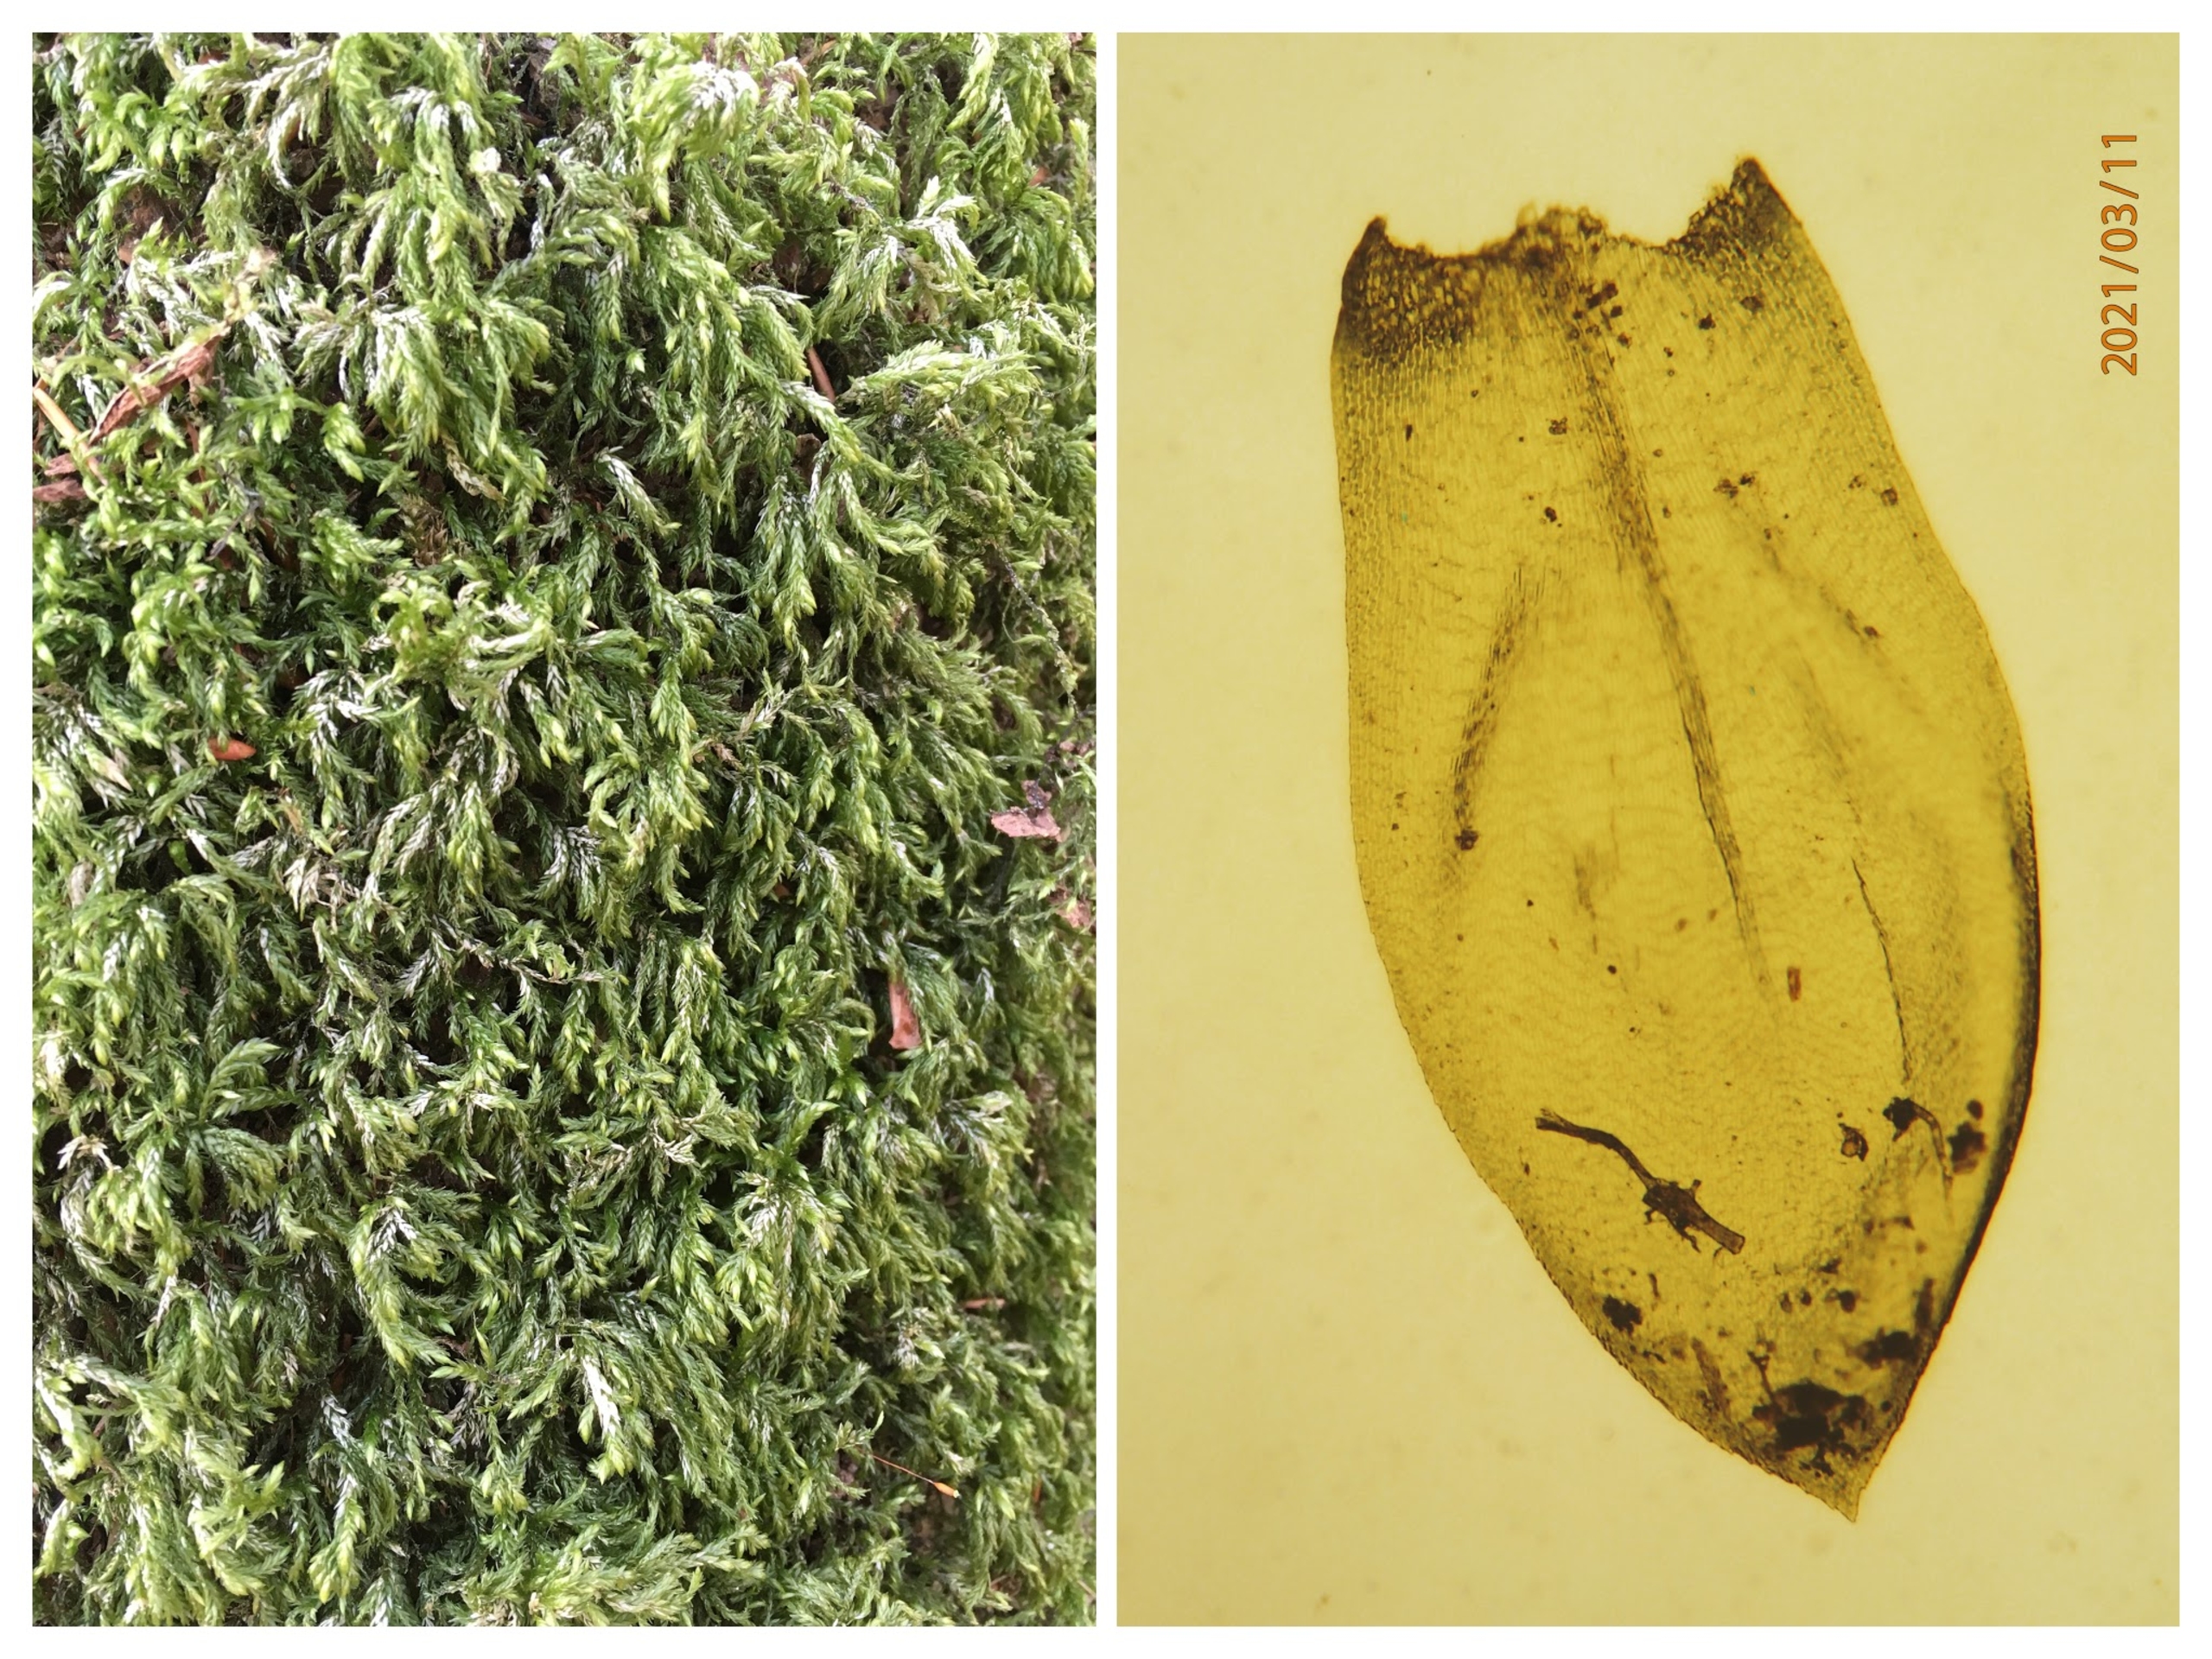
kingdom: Plantae
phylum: Bryophyta
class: Bryopsida
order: Hypnales
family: Lembophyllaceae
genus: Isothecium
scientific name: Isothecium alopecuroides
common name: Stor stammemos
